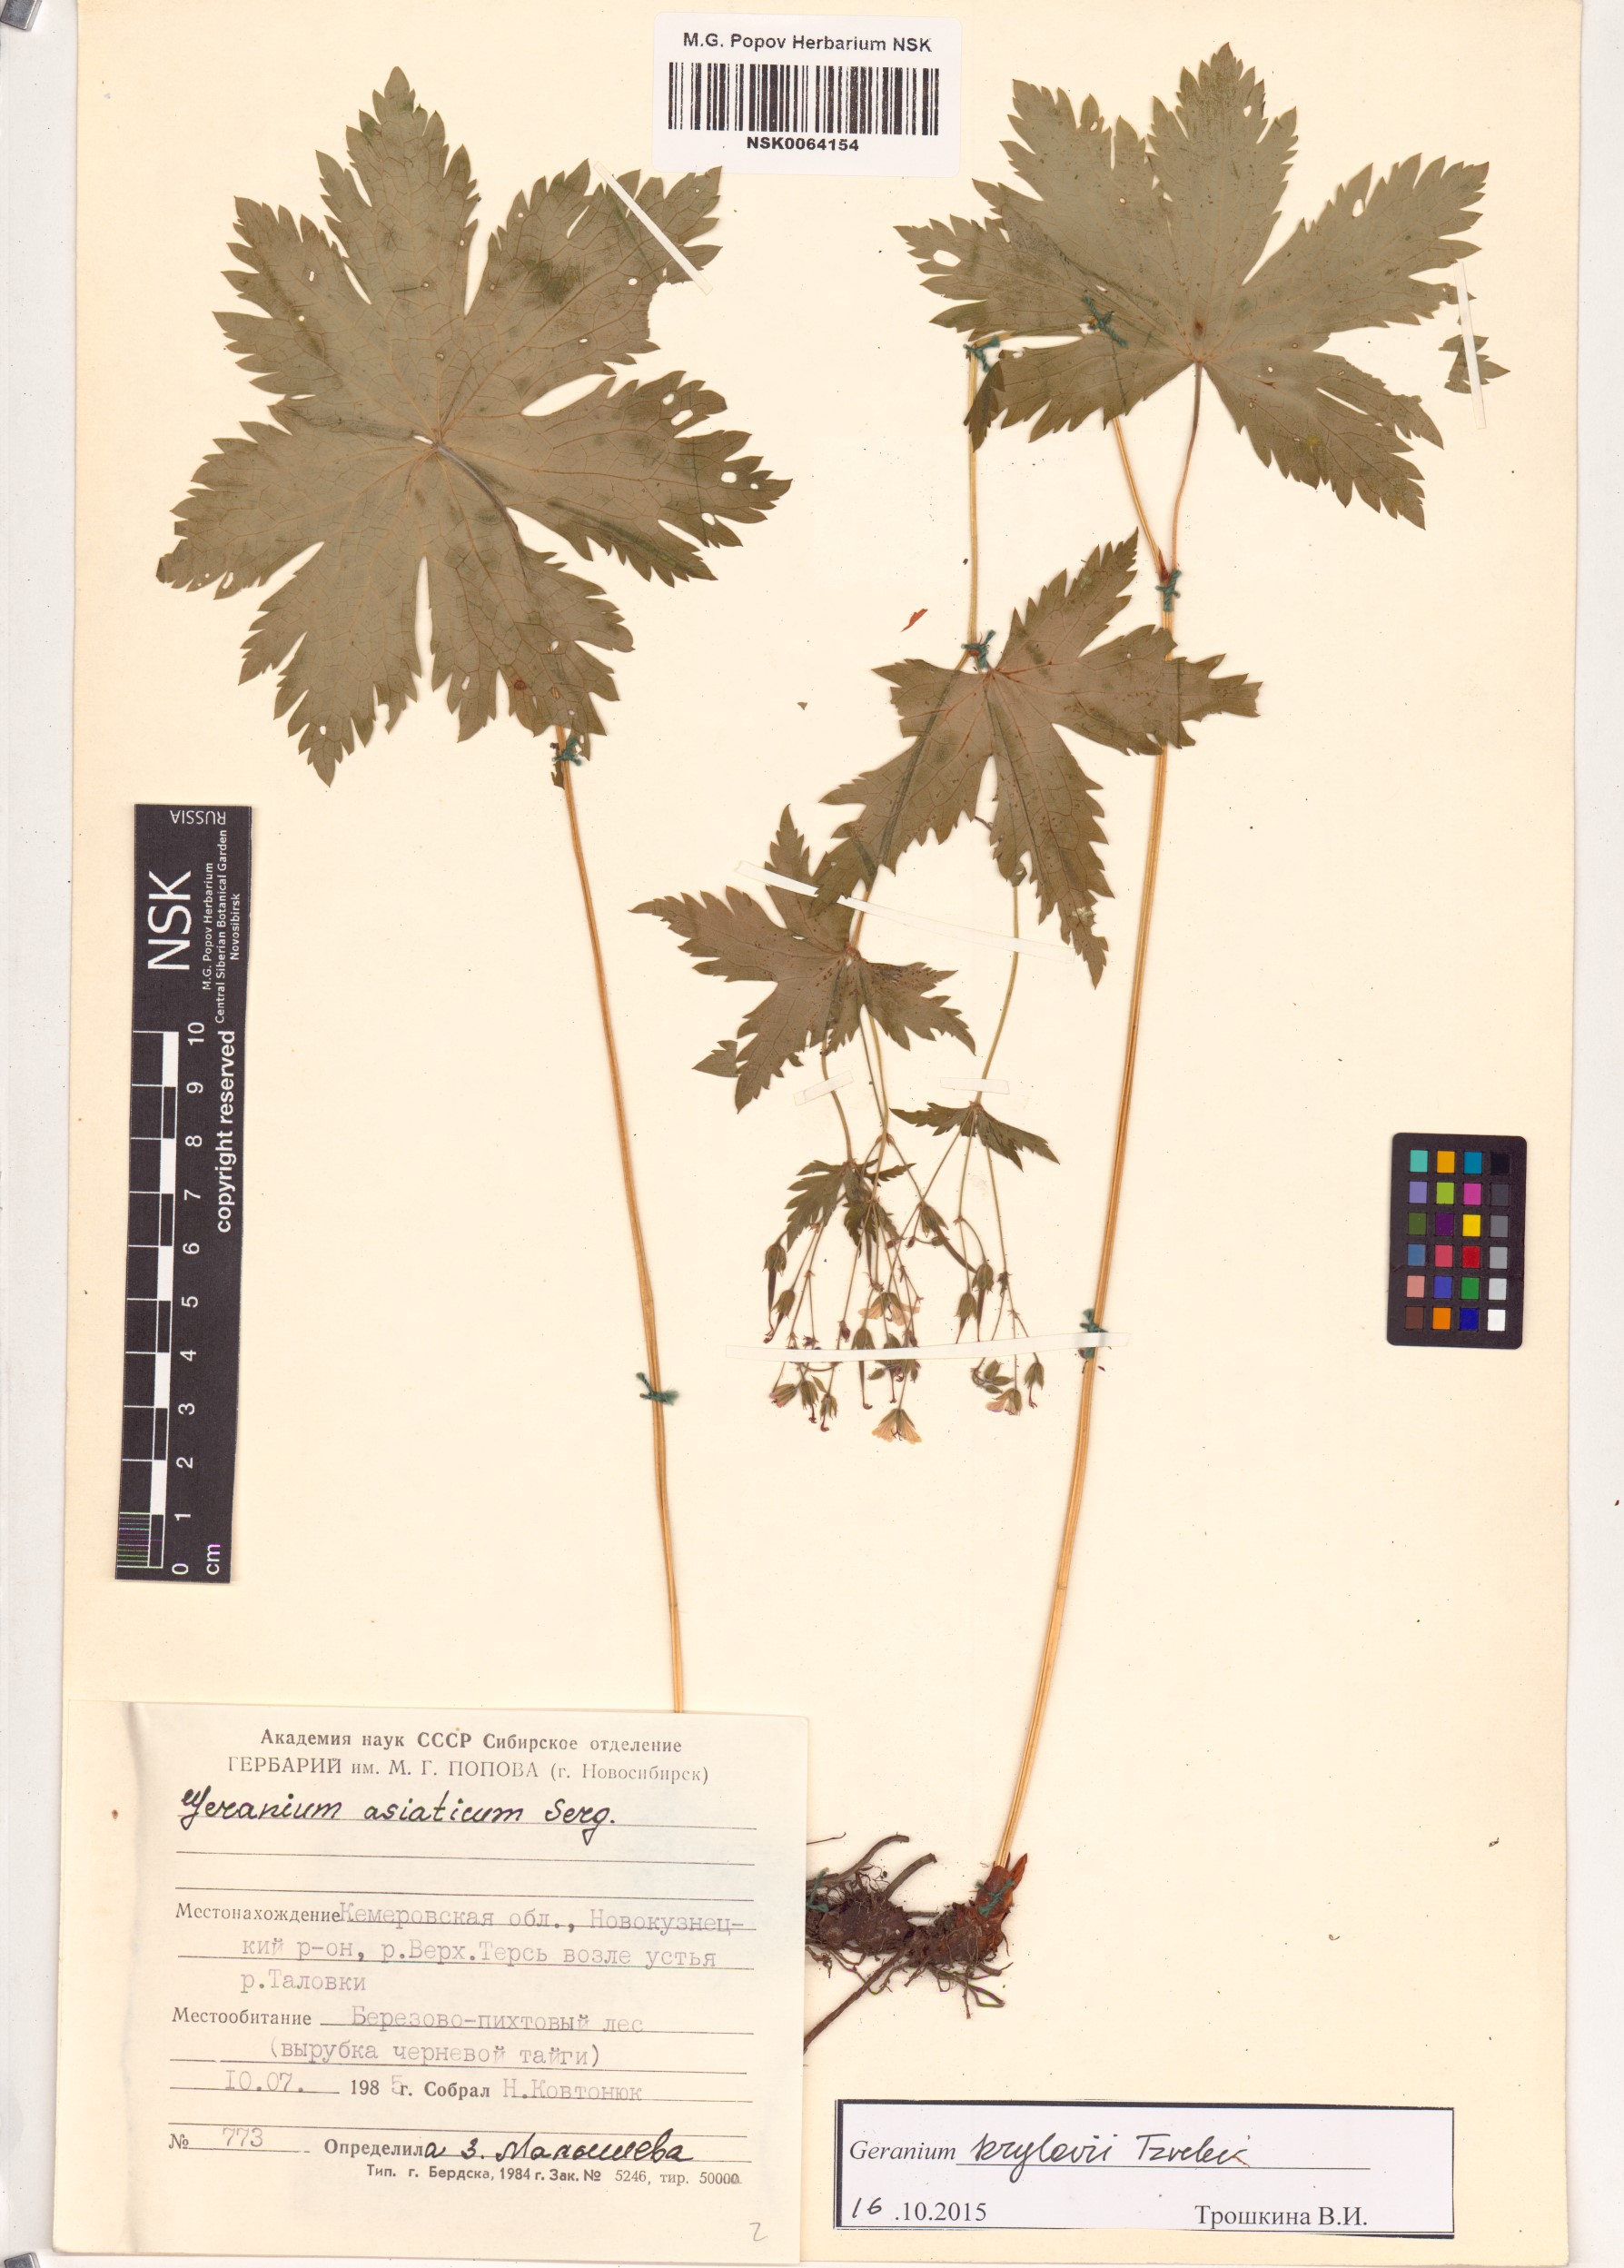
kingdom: Plantae
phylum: Tracheophyta
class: Magnoliopsida
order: Geraniales
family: Geraniaceae
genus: Geranium
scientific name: Geranium sylvaticum
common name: Wood crane's-bill
